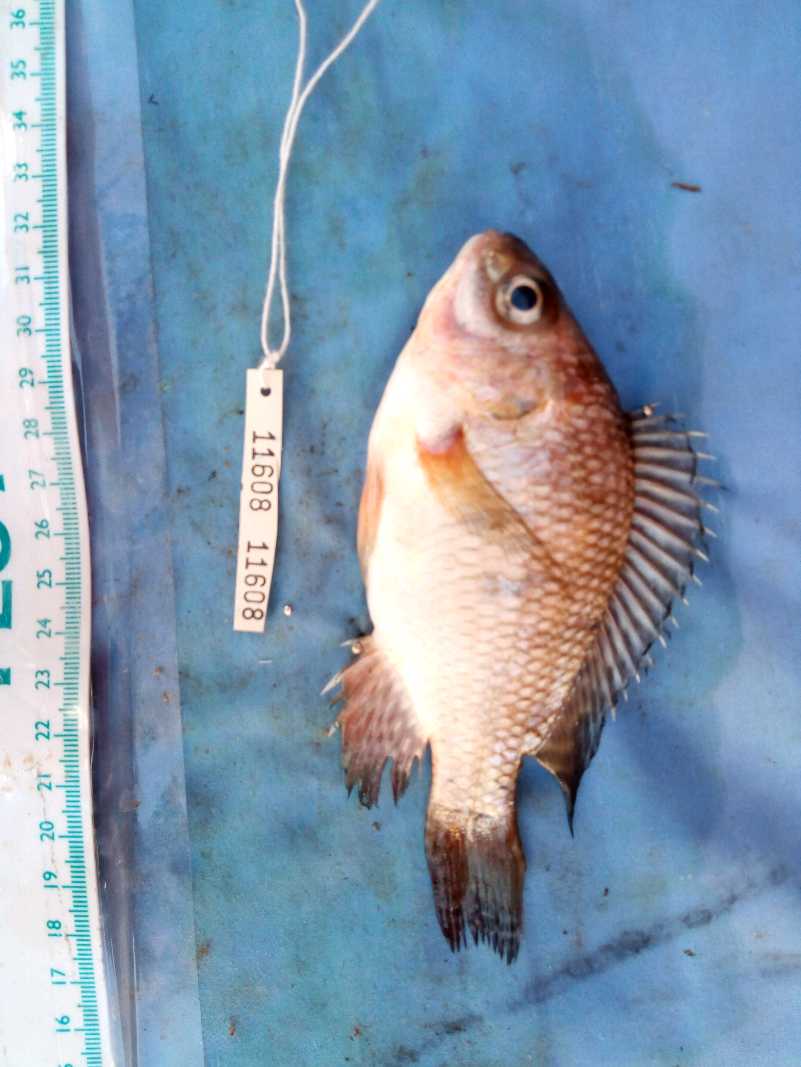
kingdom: Animalia
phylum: Chordata
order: Perciformes
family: Cichlidae
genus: Oreochromis
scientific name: Oreochromis niloticus
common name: Nile tilapia
